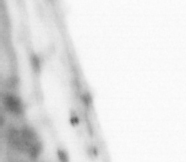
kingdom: Animalia
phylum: Chordata
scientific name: Chordata
